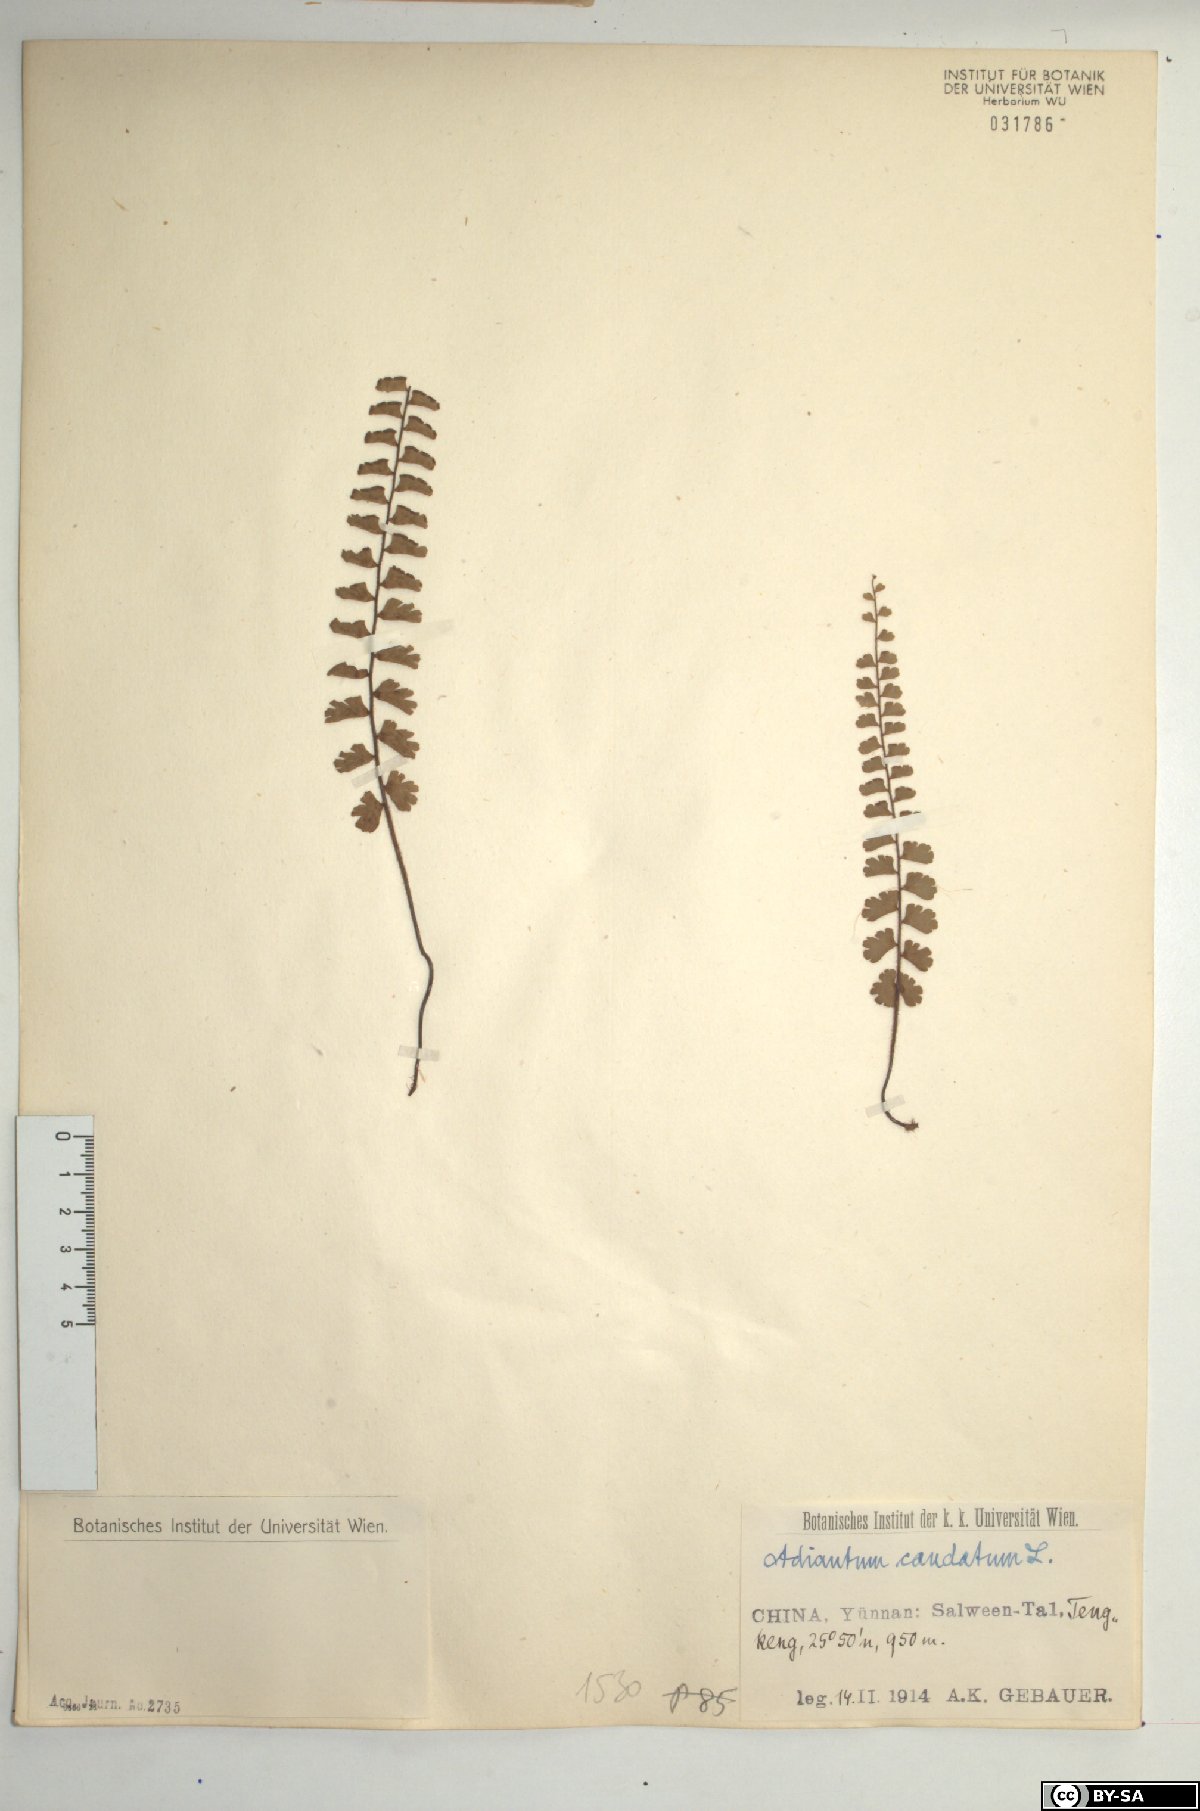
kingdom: Plantae
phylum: Tracheophyta
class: Polypodiopsida
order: Polypodiales
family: Pteridaceae
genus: Adiantum
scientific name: Adiantum caudatum
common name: Tailed maidenhair
